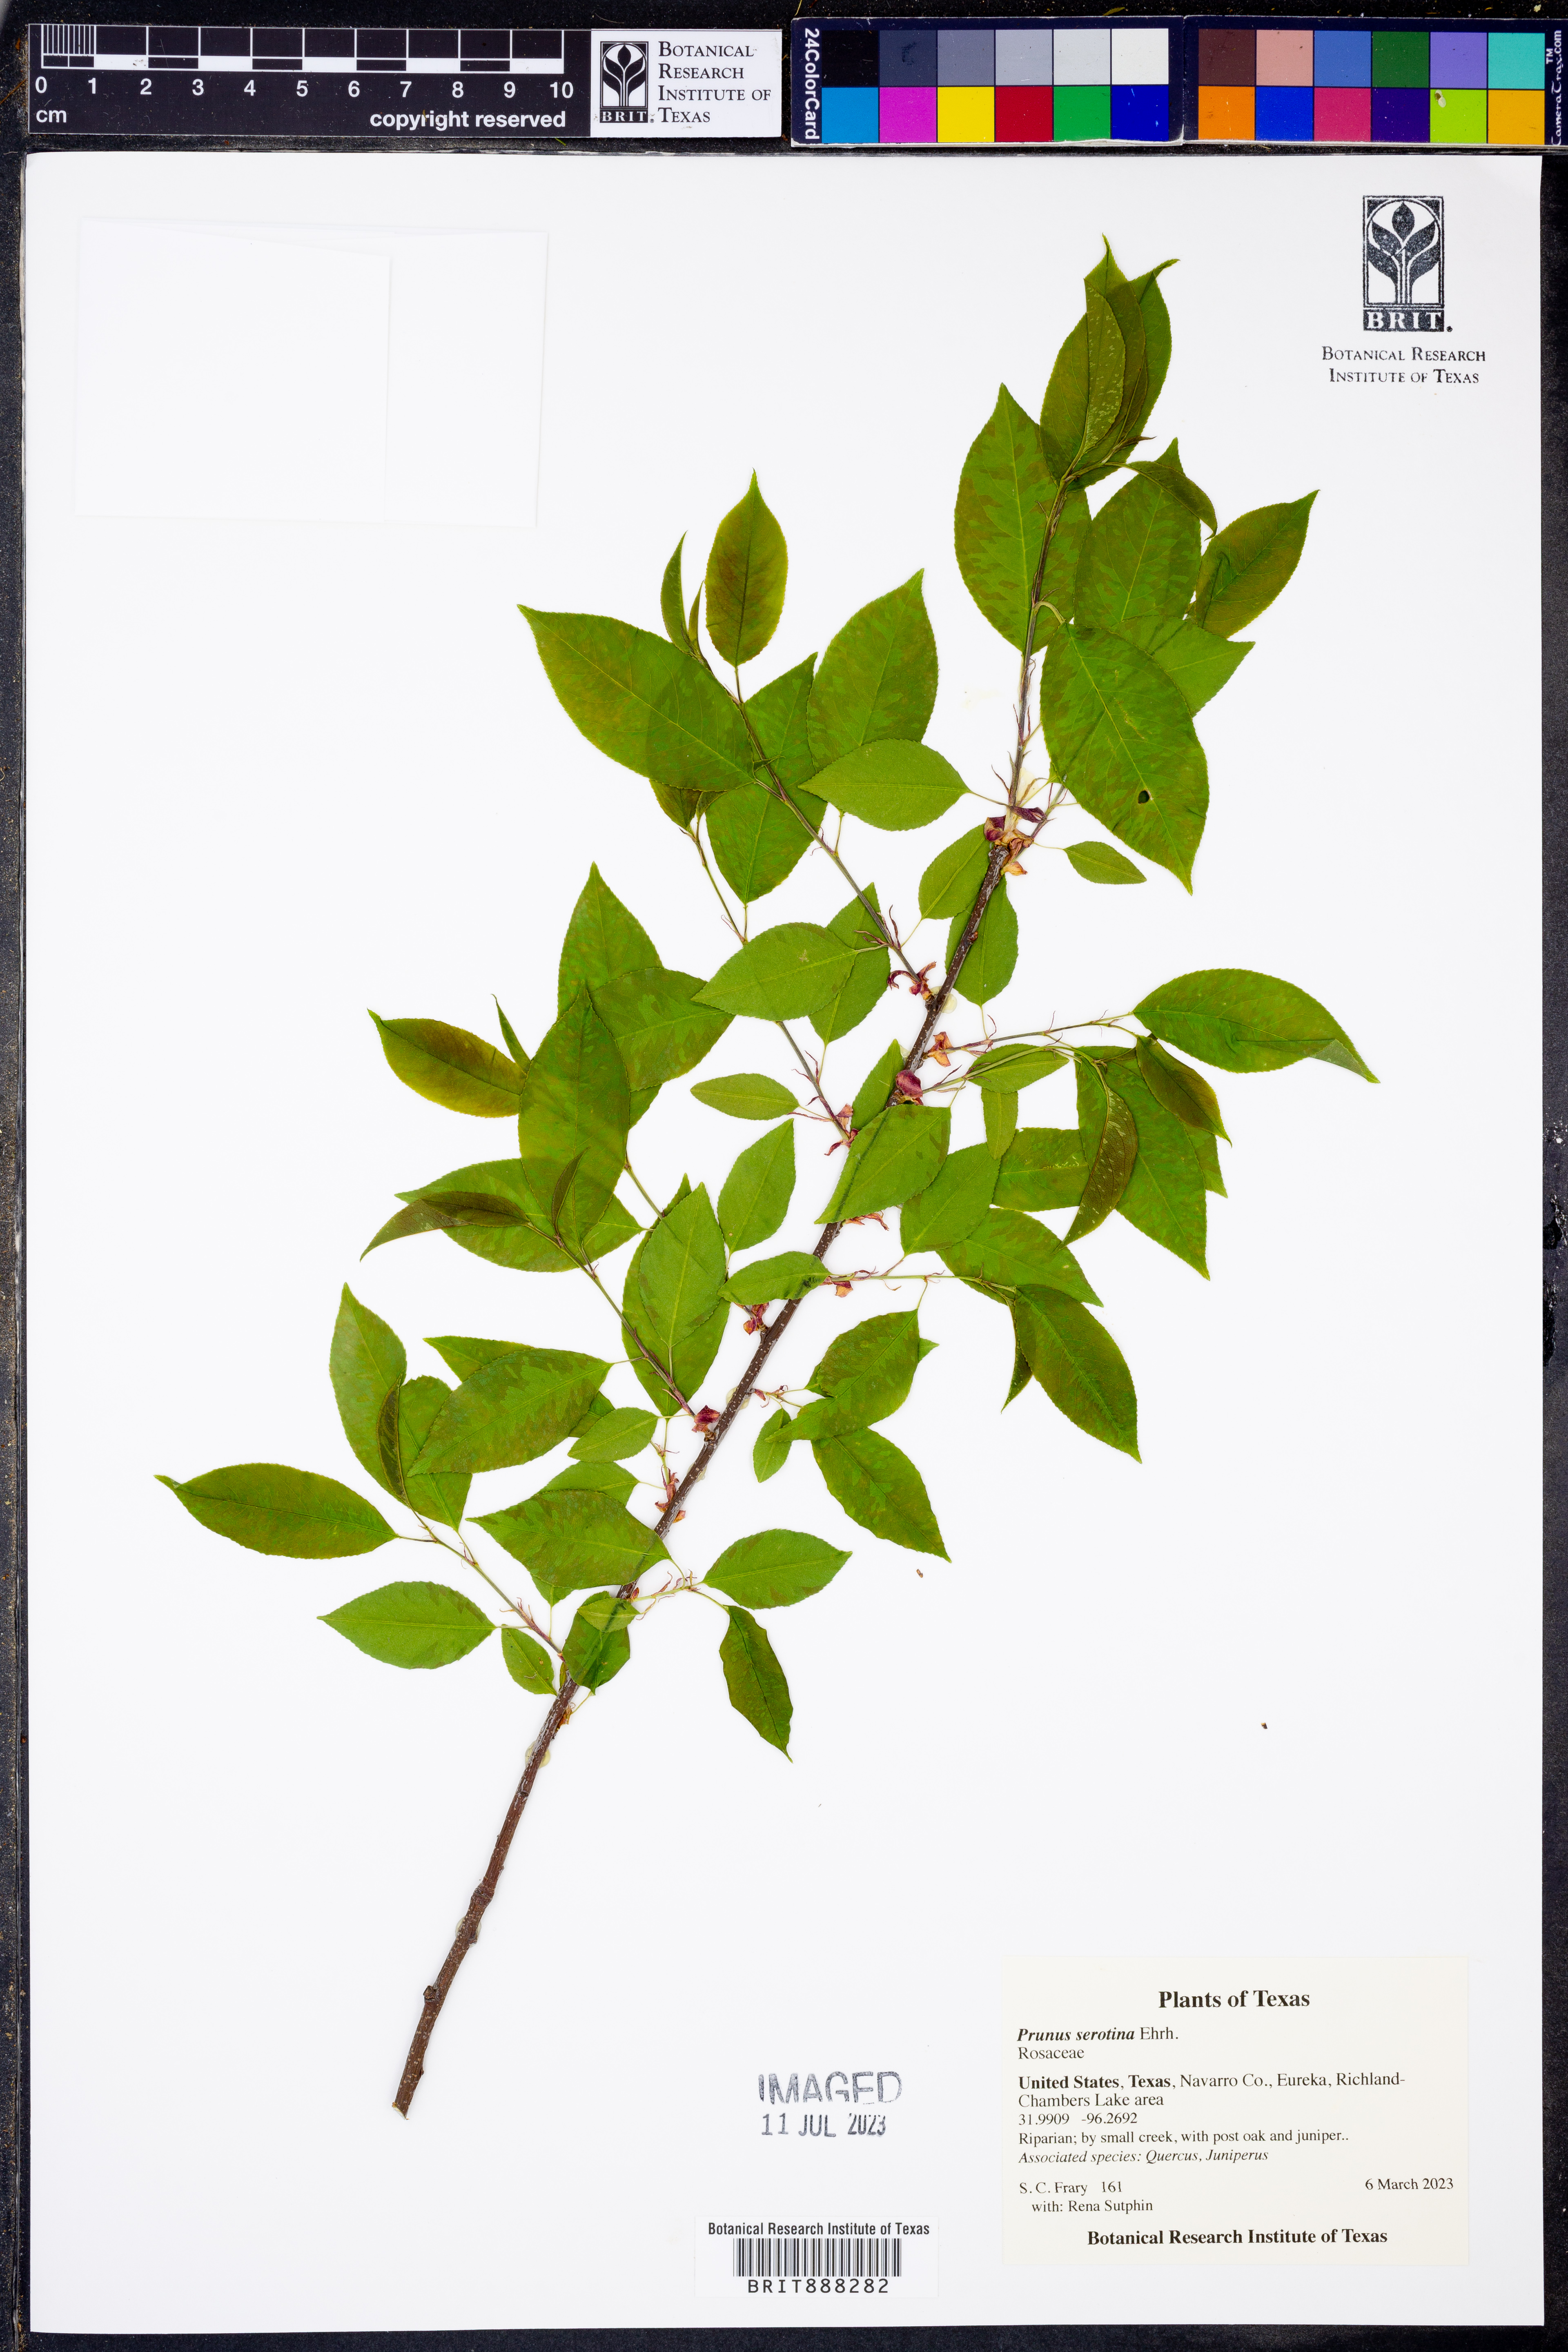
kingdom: Plantae
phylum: Tracheophyta
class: Magnoliopsida
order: Rosales
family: Rosaceae
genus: Prunus
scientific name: Prunus serotina
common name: Black cherry
